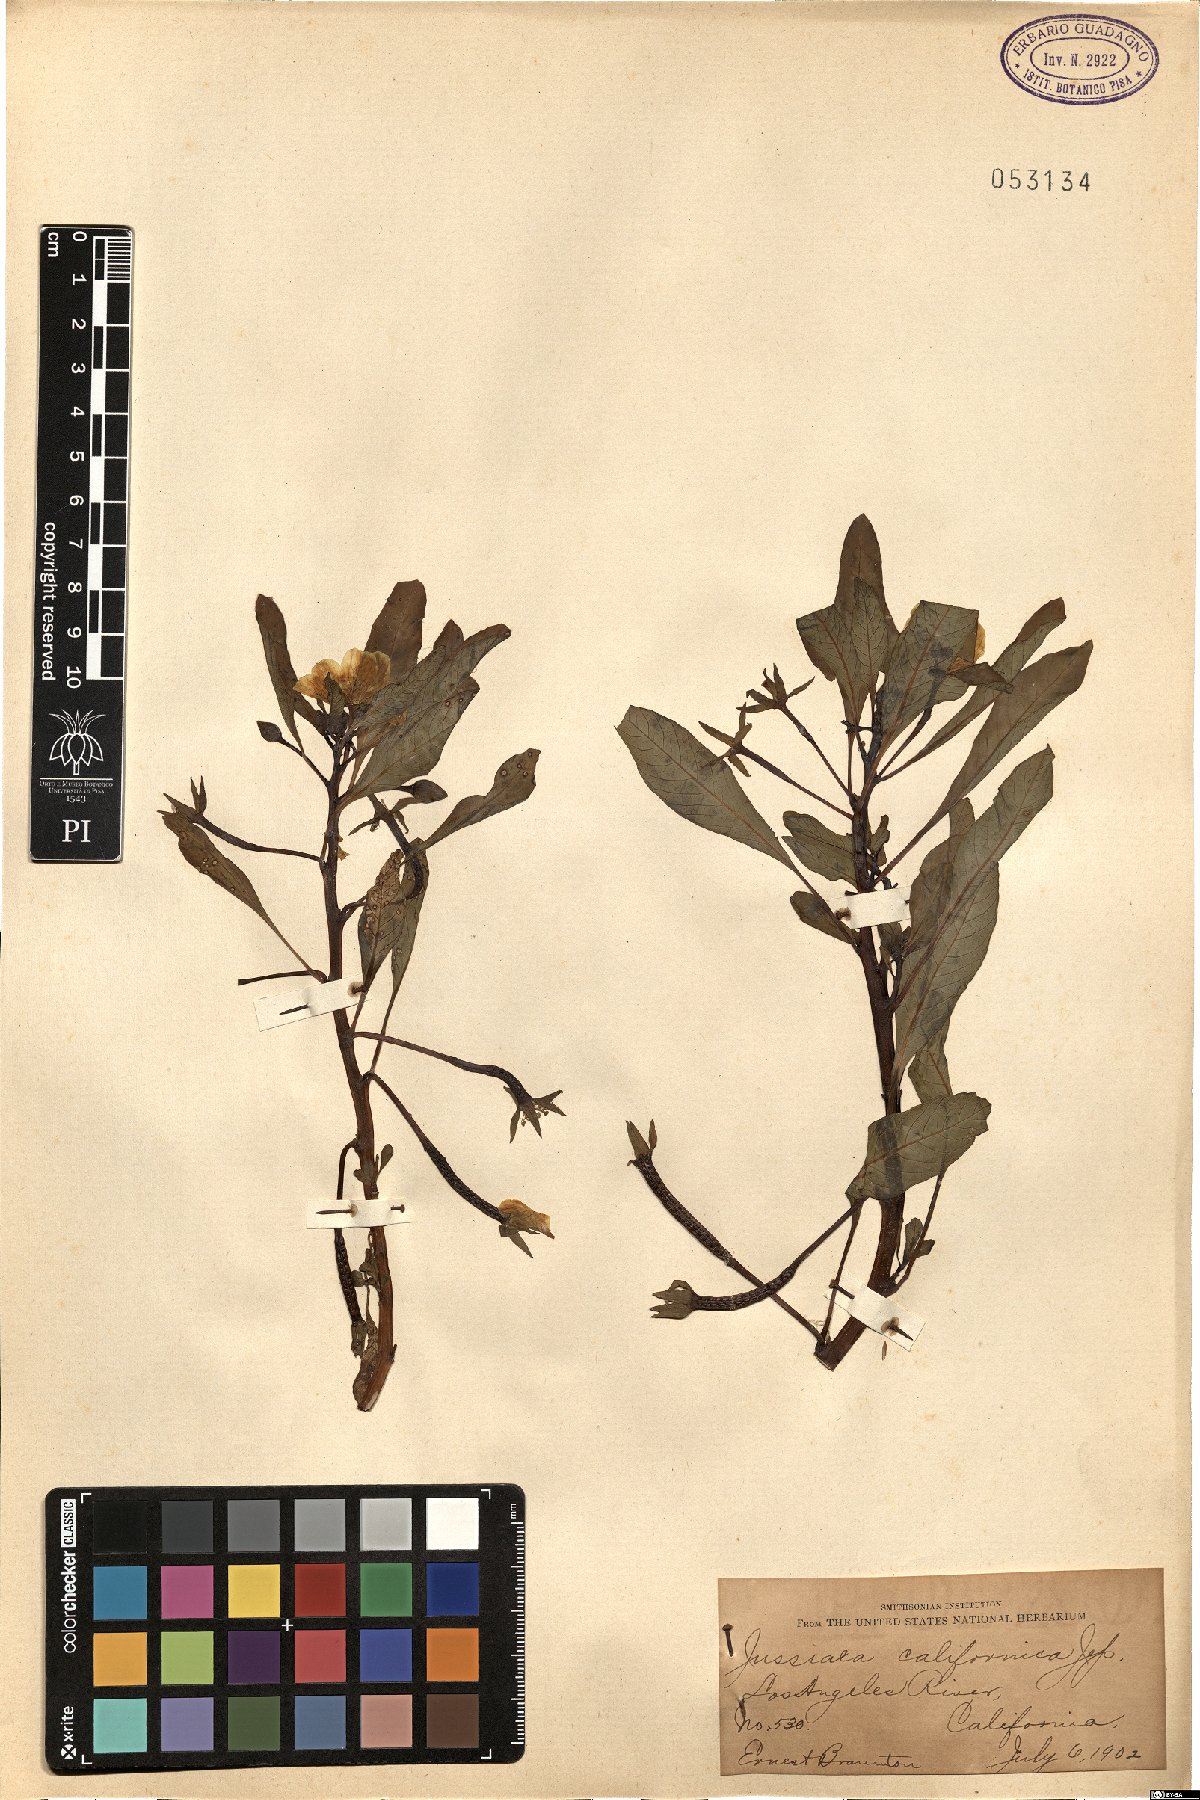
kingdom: Plantae
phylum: Tracheophyta
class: Magnoliopsida
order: Myrtales
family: Onagraceae
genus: Ludwigia
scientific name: Ludwigia peploides
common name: Floating primrose-willow
